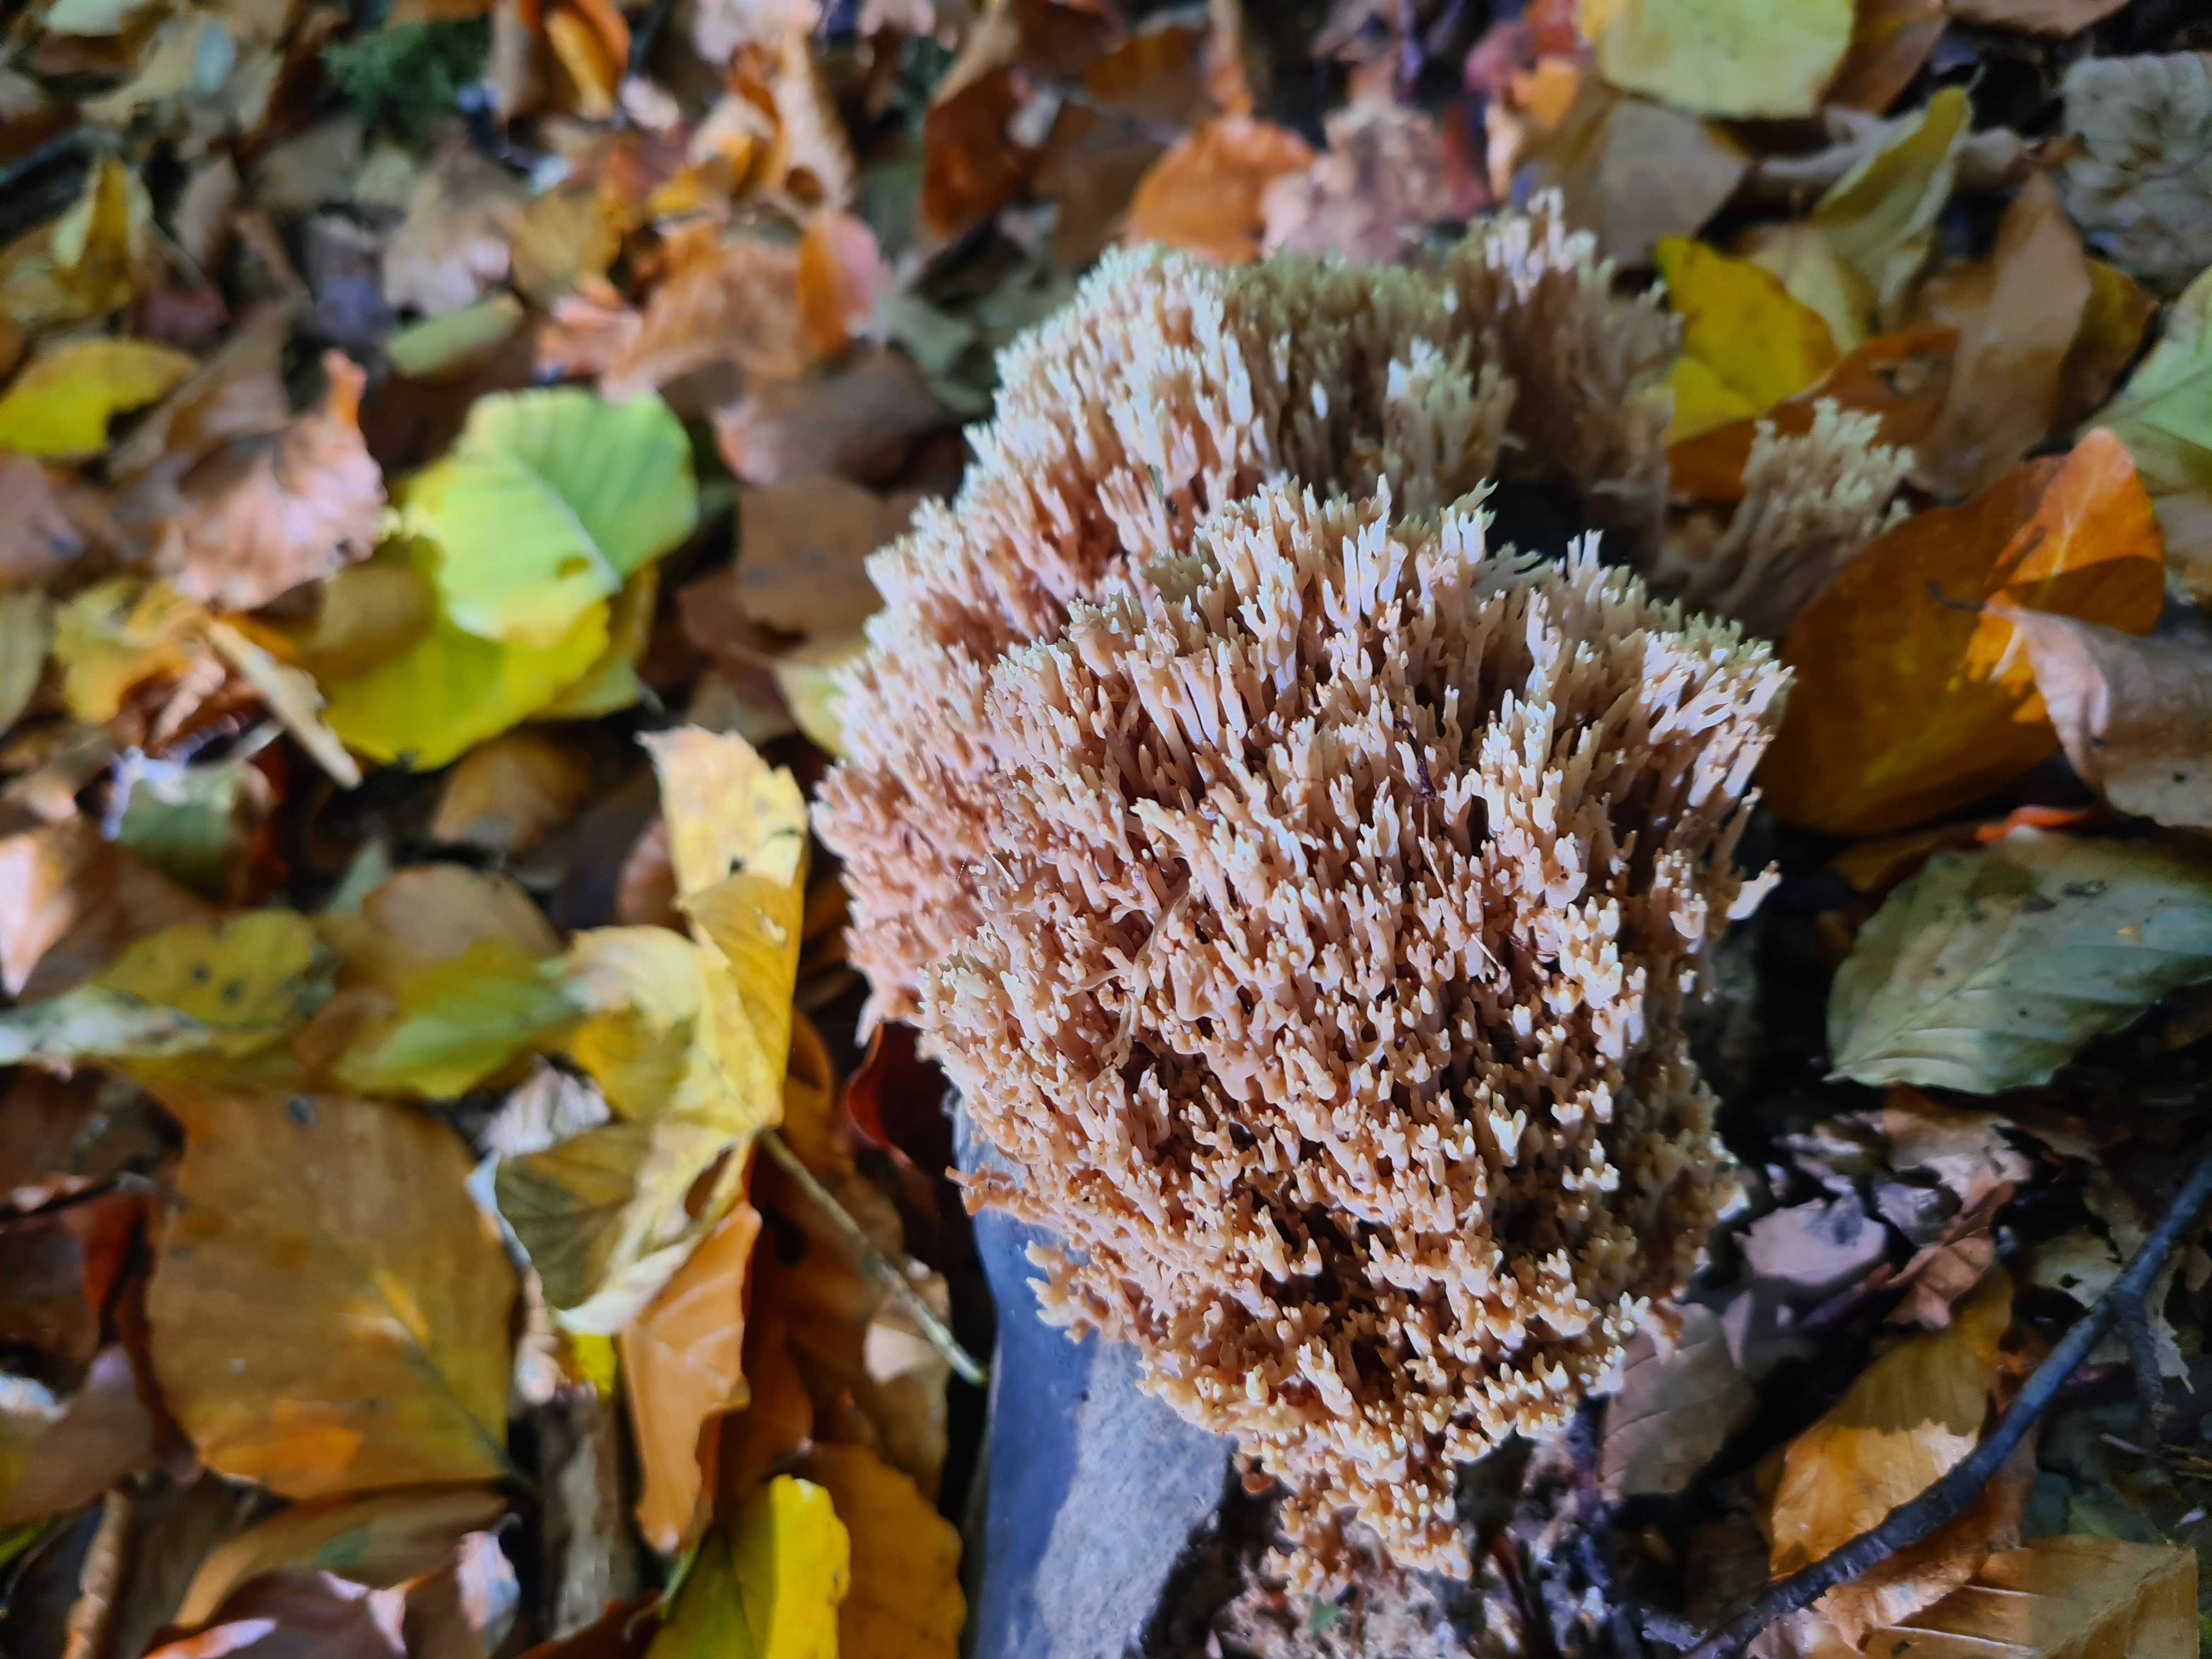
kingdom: Fungi
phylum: Basidiomycota
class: Agaricomycetes
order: Gomphales
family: Gomphaceae
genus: Ramaria
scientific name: Ramaria stricta
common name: rank koralsvamp
